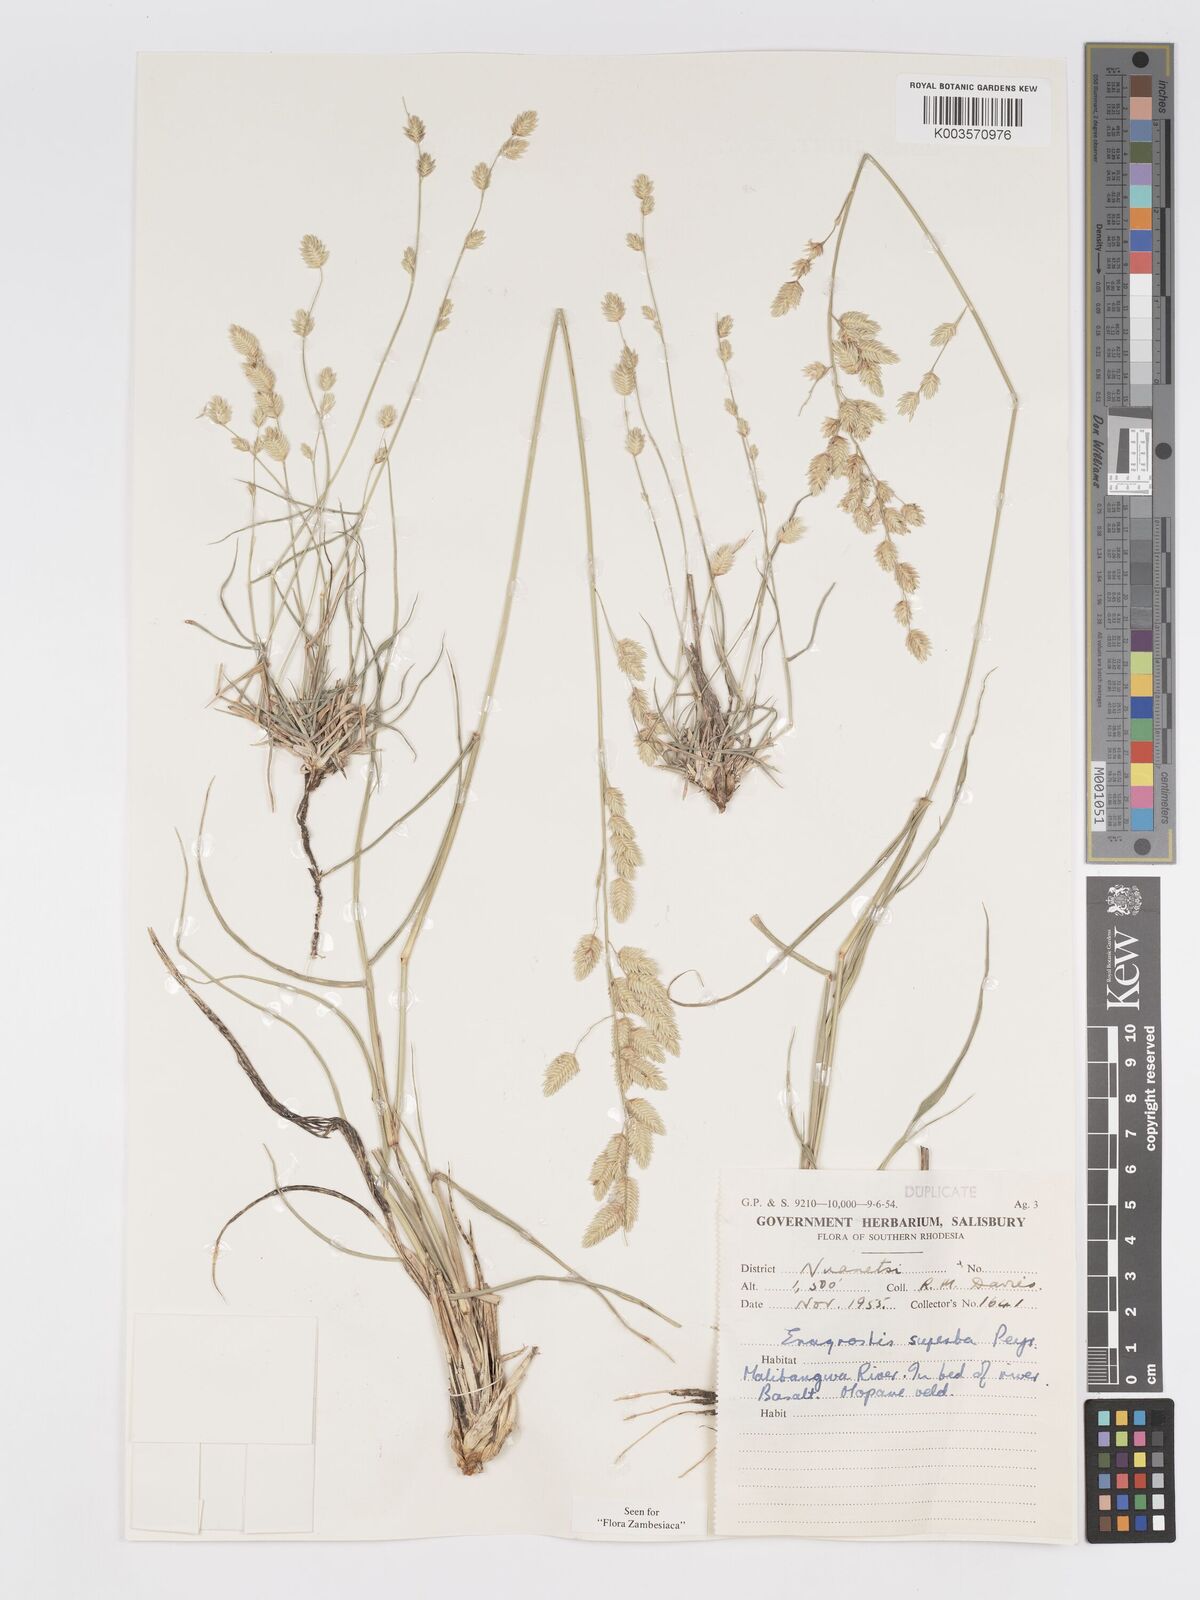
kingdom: Plantae
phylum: Tracheophyta
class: Liliopsida
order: Poales
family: Poaceae
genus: Eragrostis
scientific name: Eragrostis superba
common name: Wilman lovegrass
